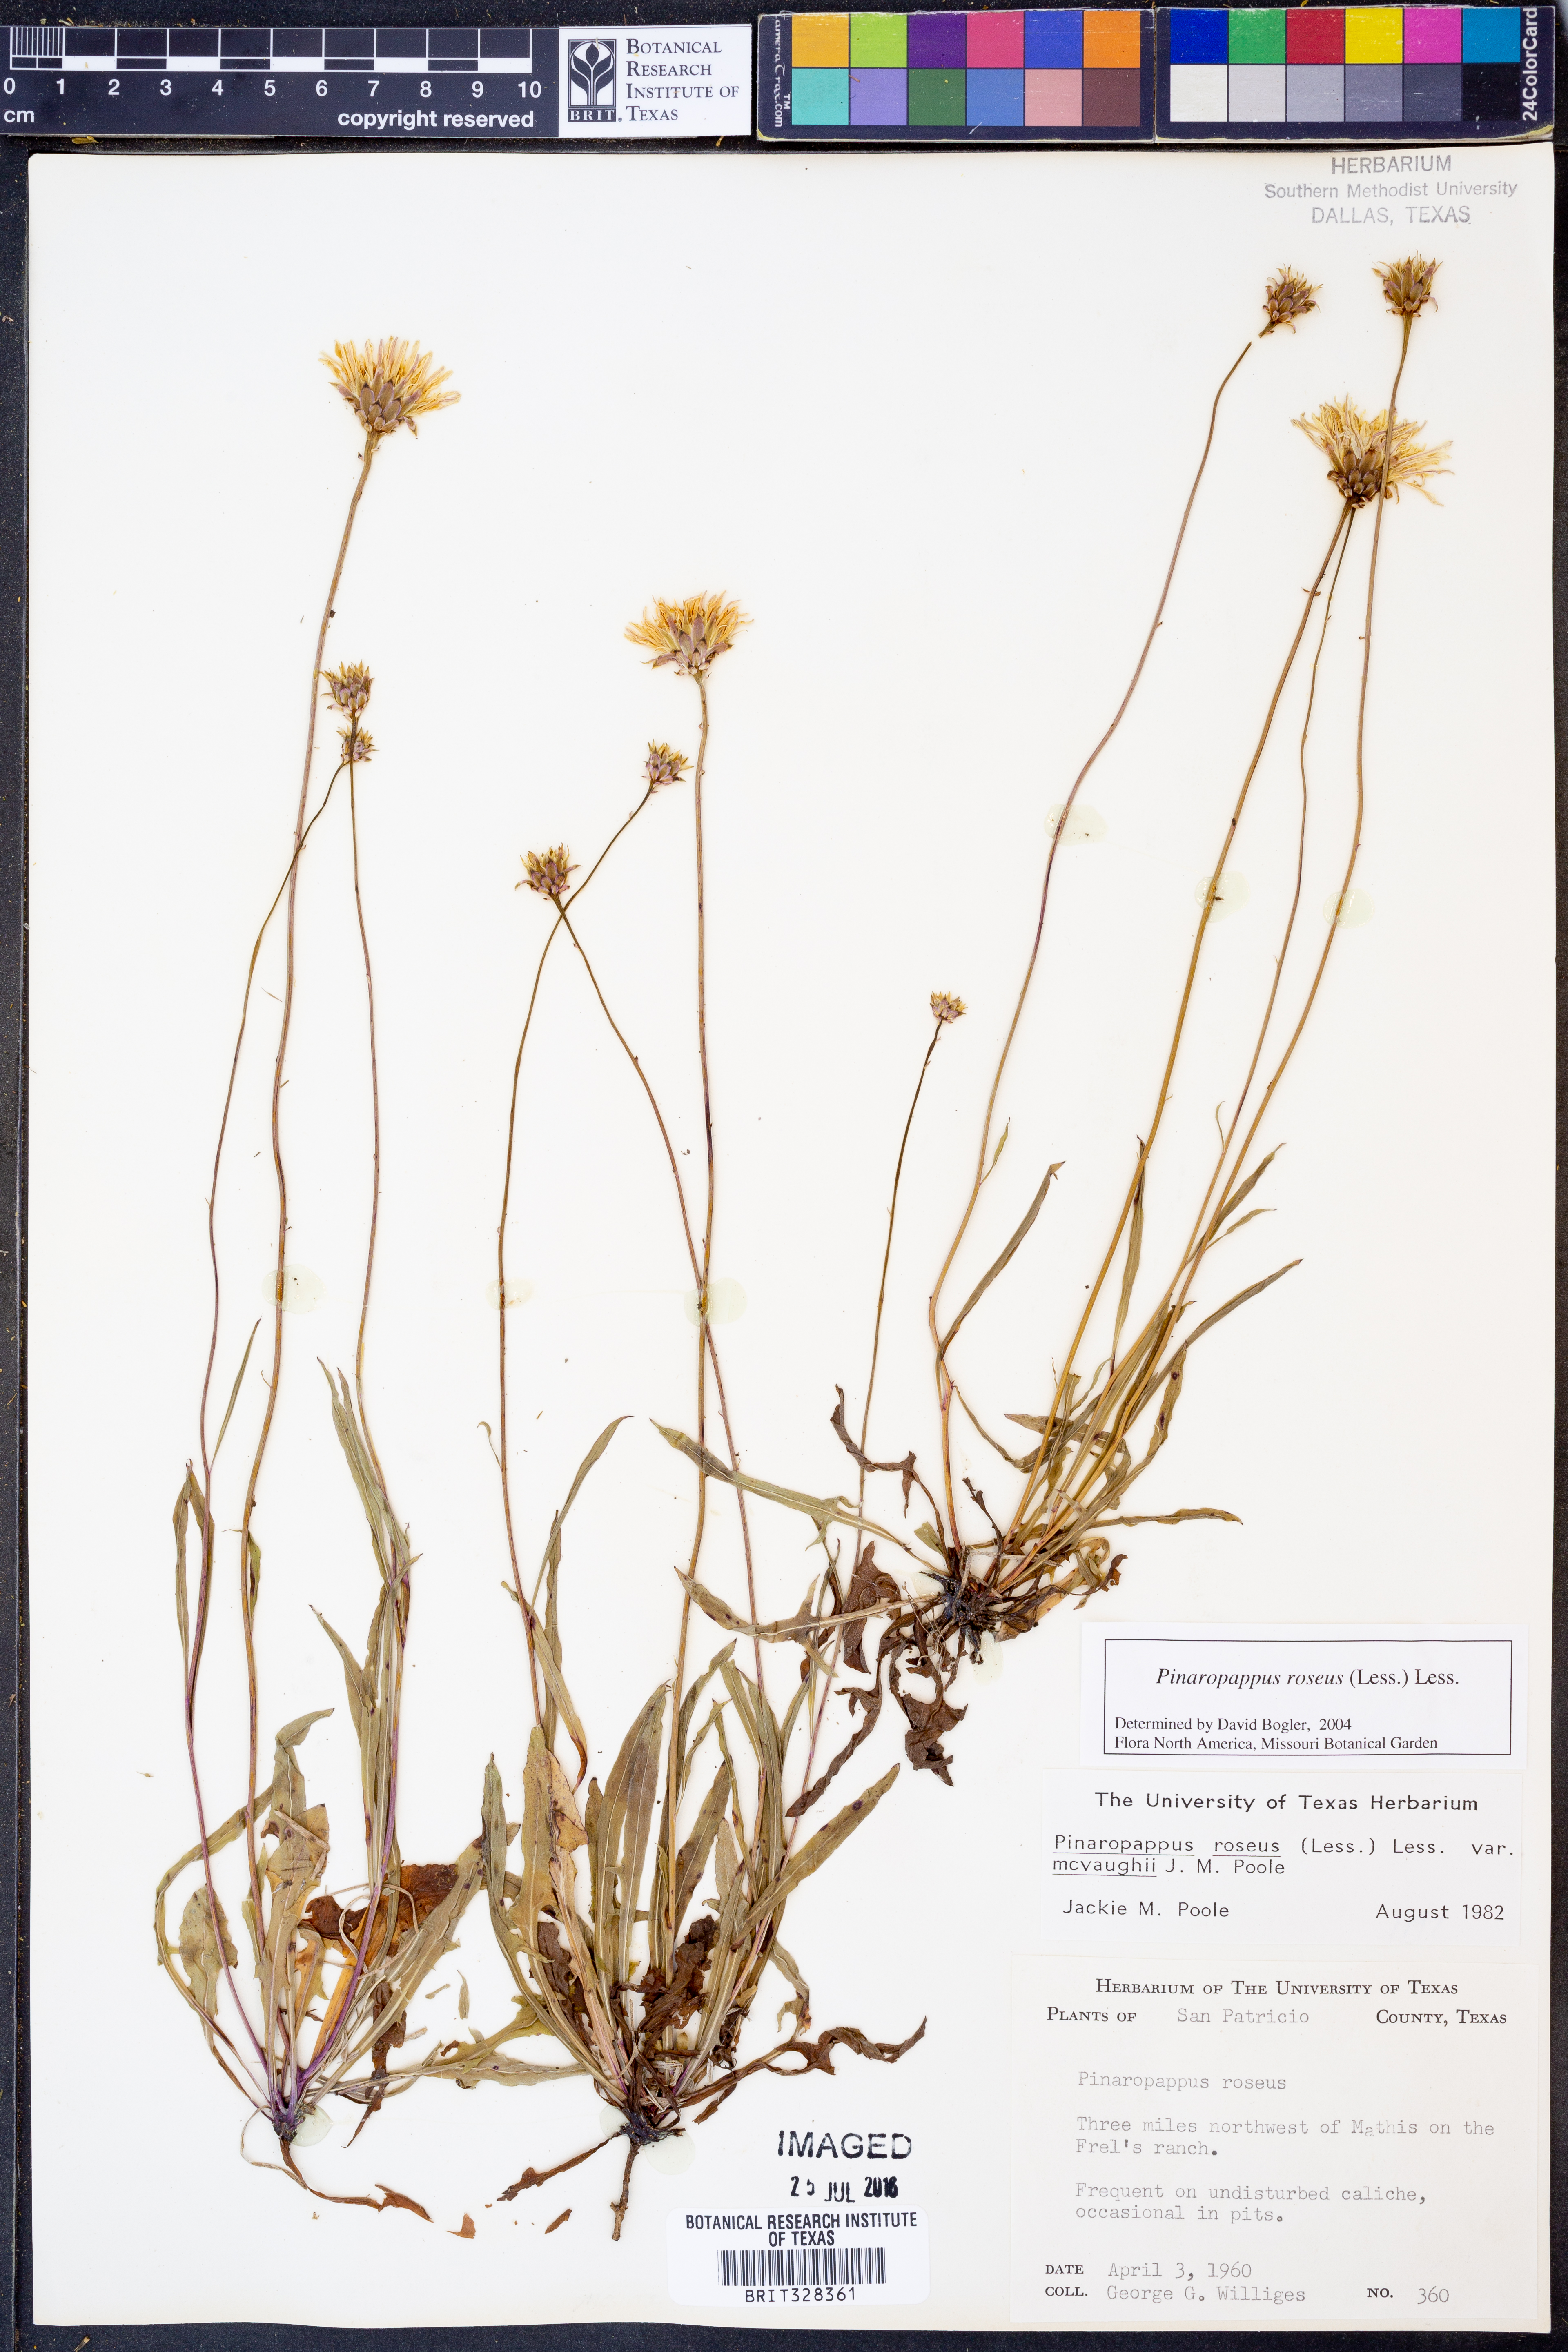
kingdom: Plantae
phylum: Tracheophyta
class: Magnoliopsida
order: Asterales
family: Asteraceae
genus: Pinaropappus
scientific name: Pinaropappus roseus
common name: Rock-lettuce
